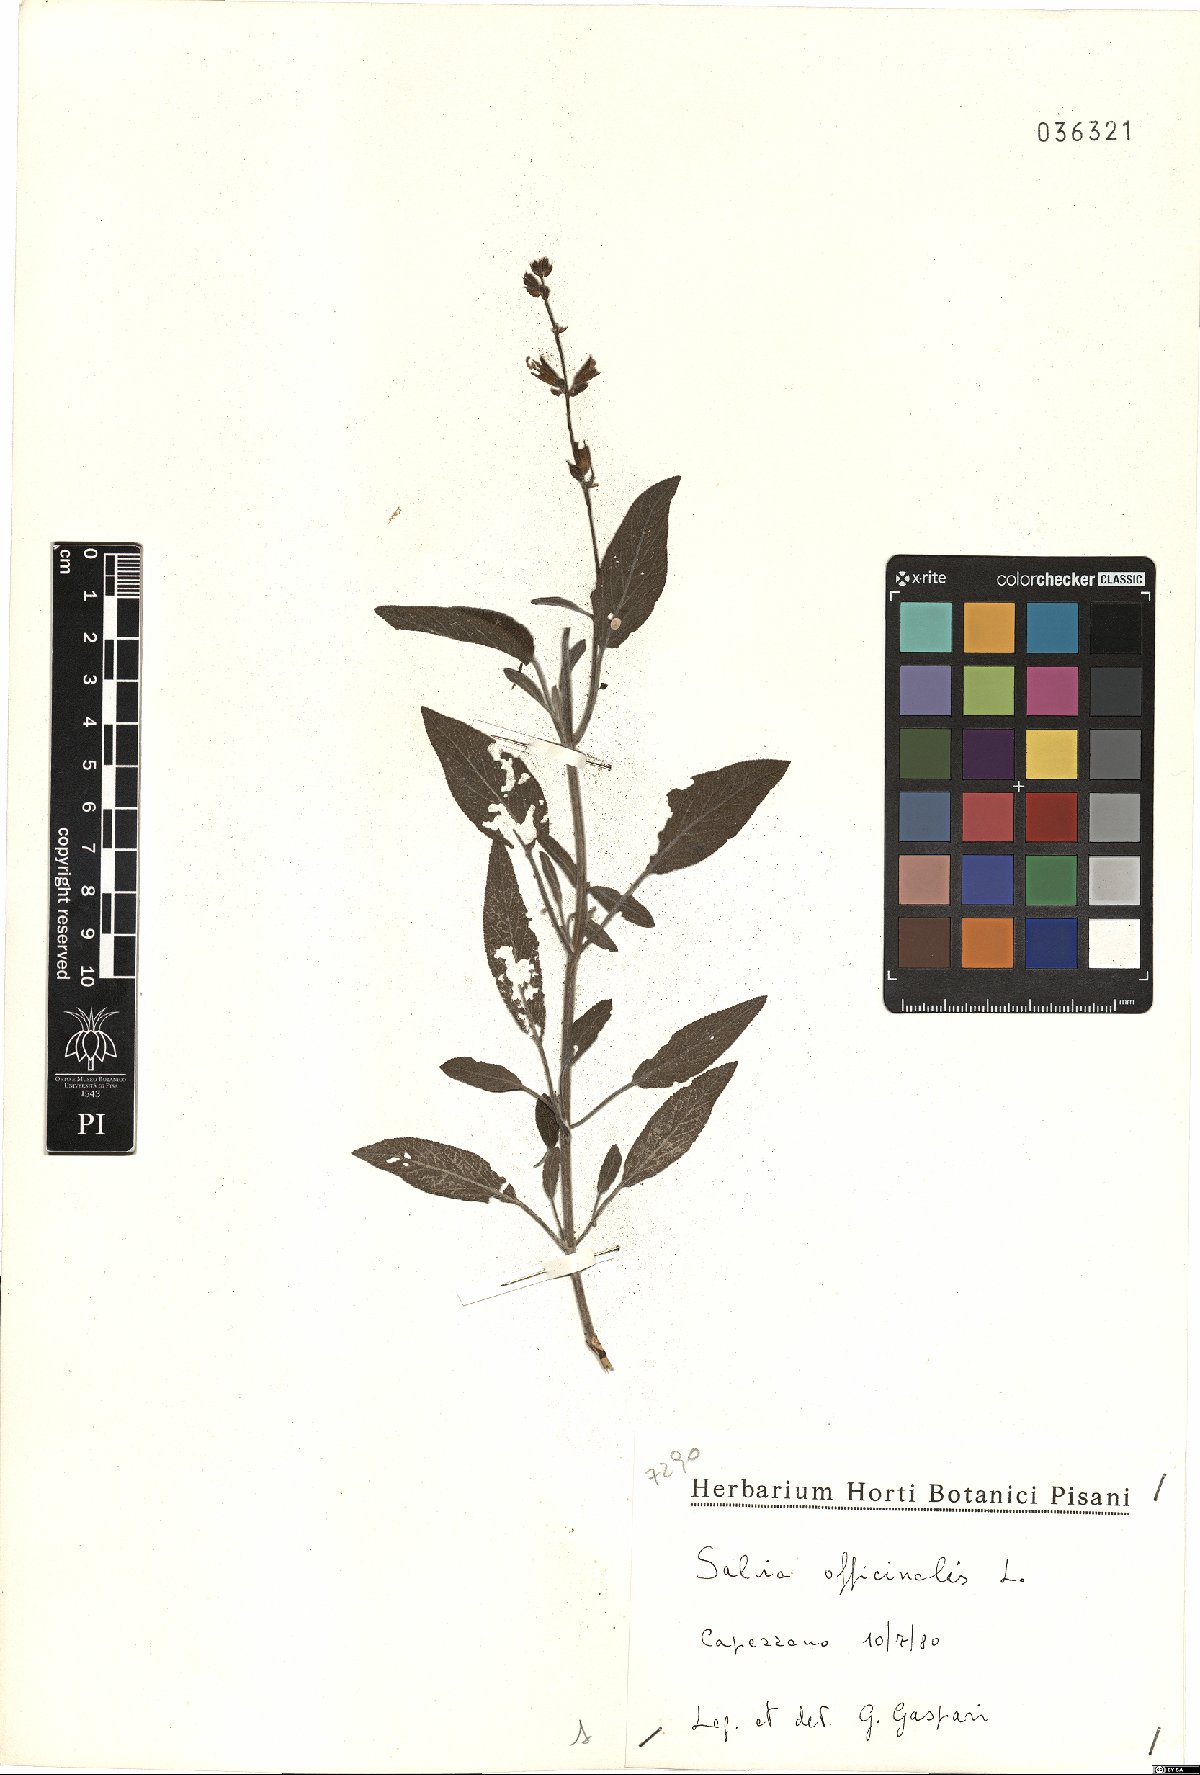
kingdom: Plantae
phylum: Tracheophyta
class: Magnoliopsida
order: Lamiales
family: Lamiaceae
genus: Salvia
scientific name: Salvia officinalis
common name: Sage
